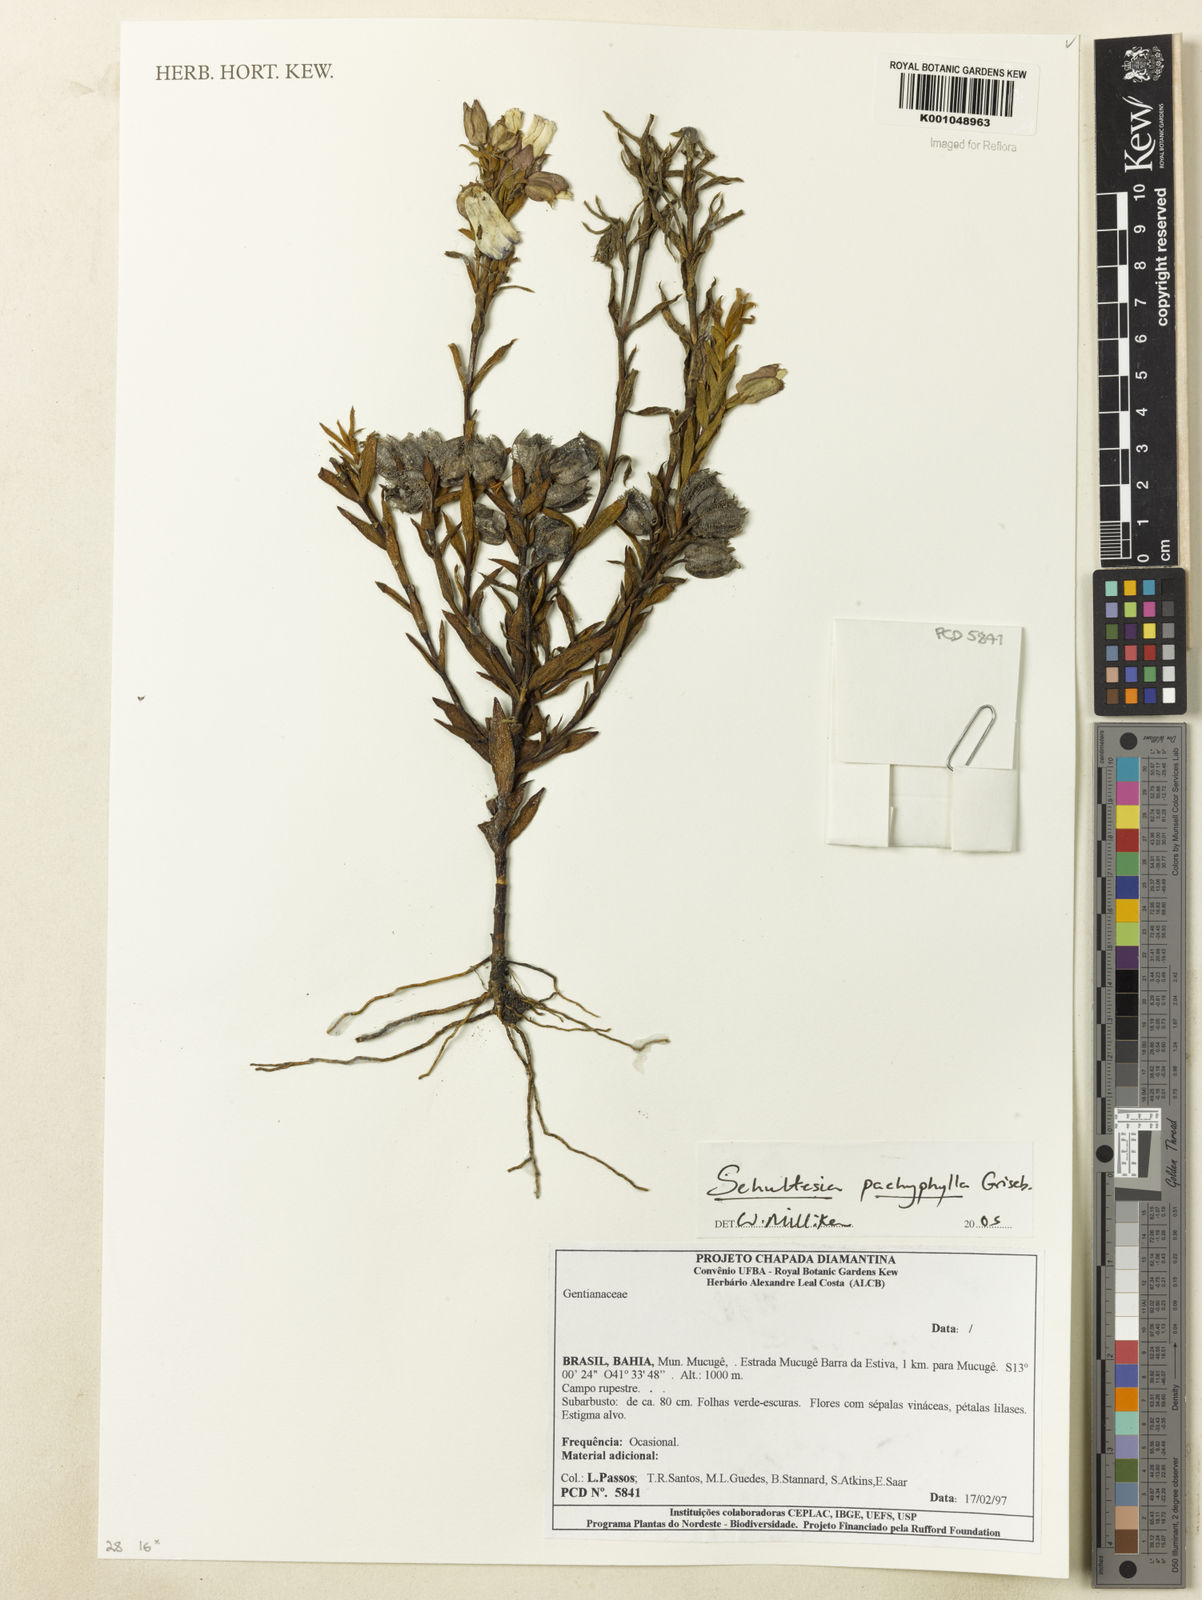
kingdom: Plantae
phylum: Tracheophyta
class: Magnoliopsida
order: Gentianales
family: Gentianaceae
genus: Schultesia
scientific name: Schultesia pachyphylla
